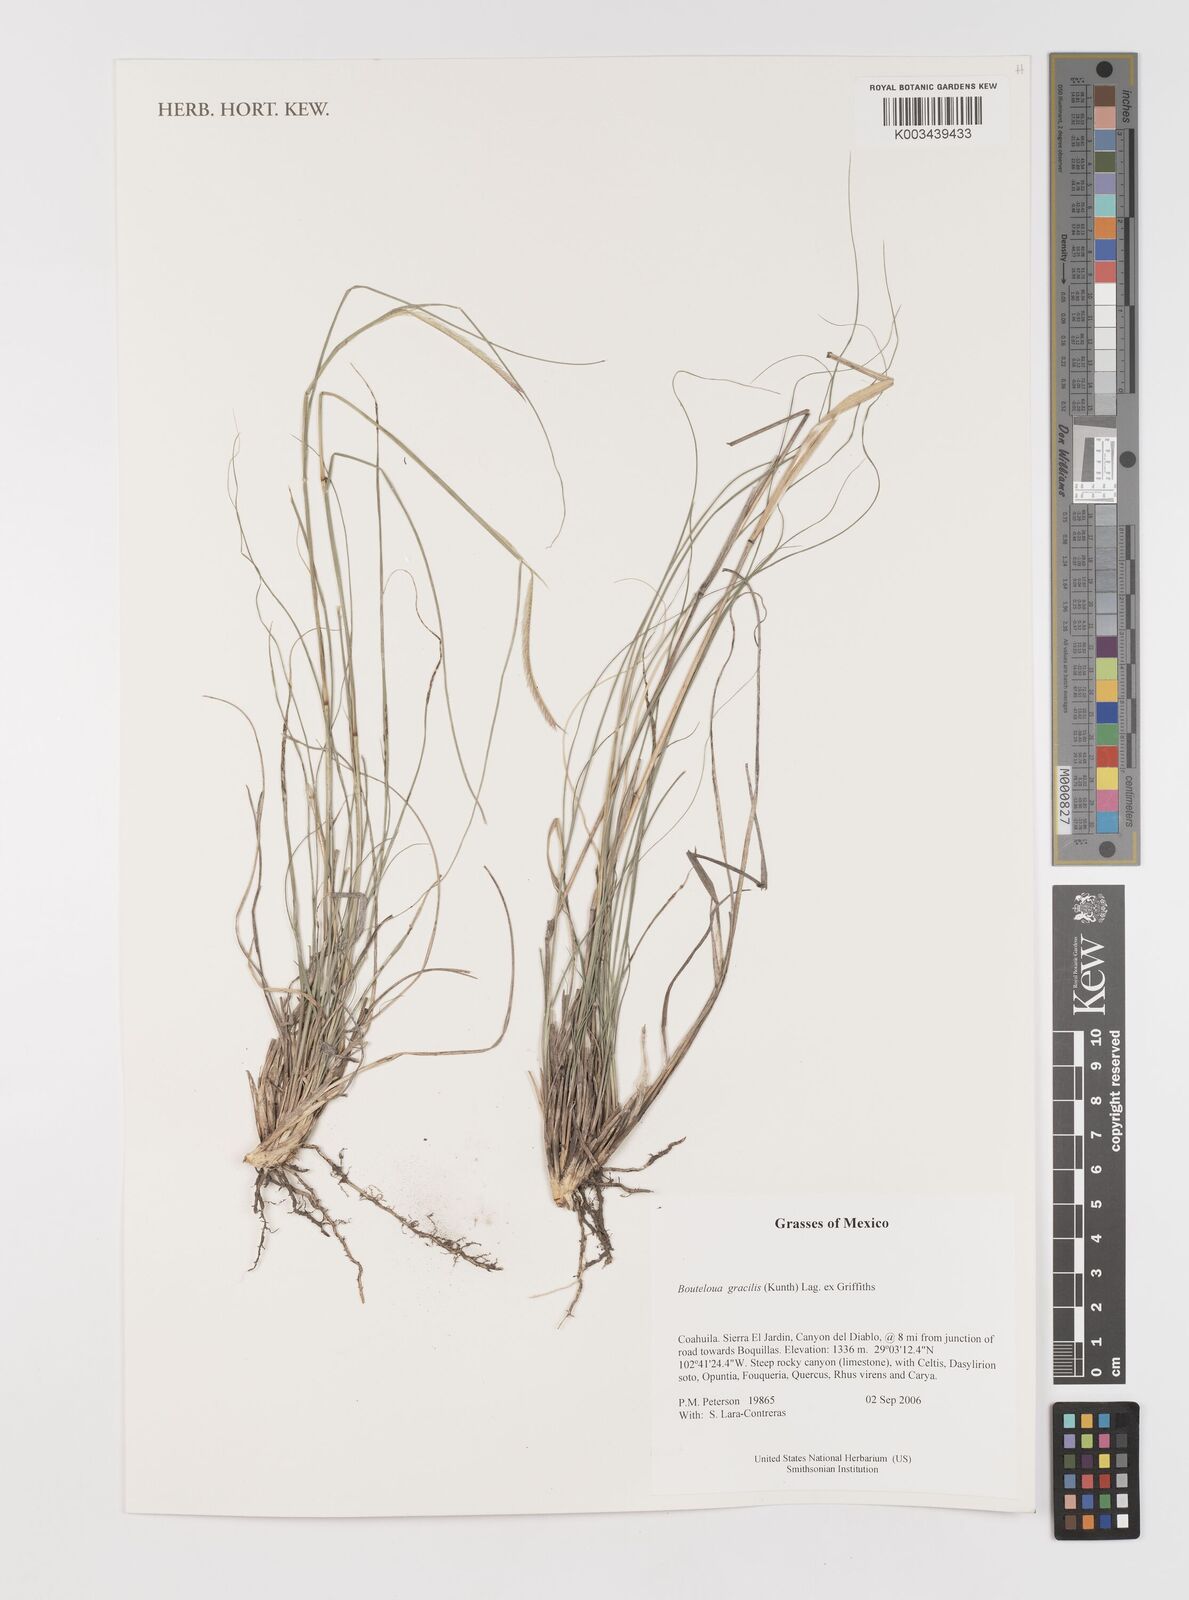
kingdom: Plantae
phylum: Tracheophyta
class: Liliopsida
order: Poales
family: Poaceae
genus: Bouteloua
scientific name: Bouteloua aristidoides
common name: Needle grama
